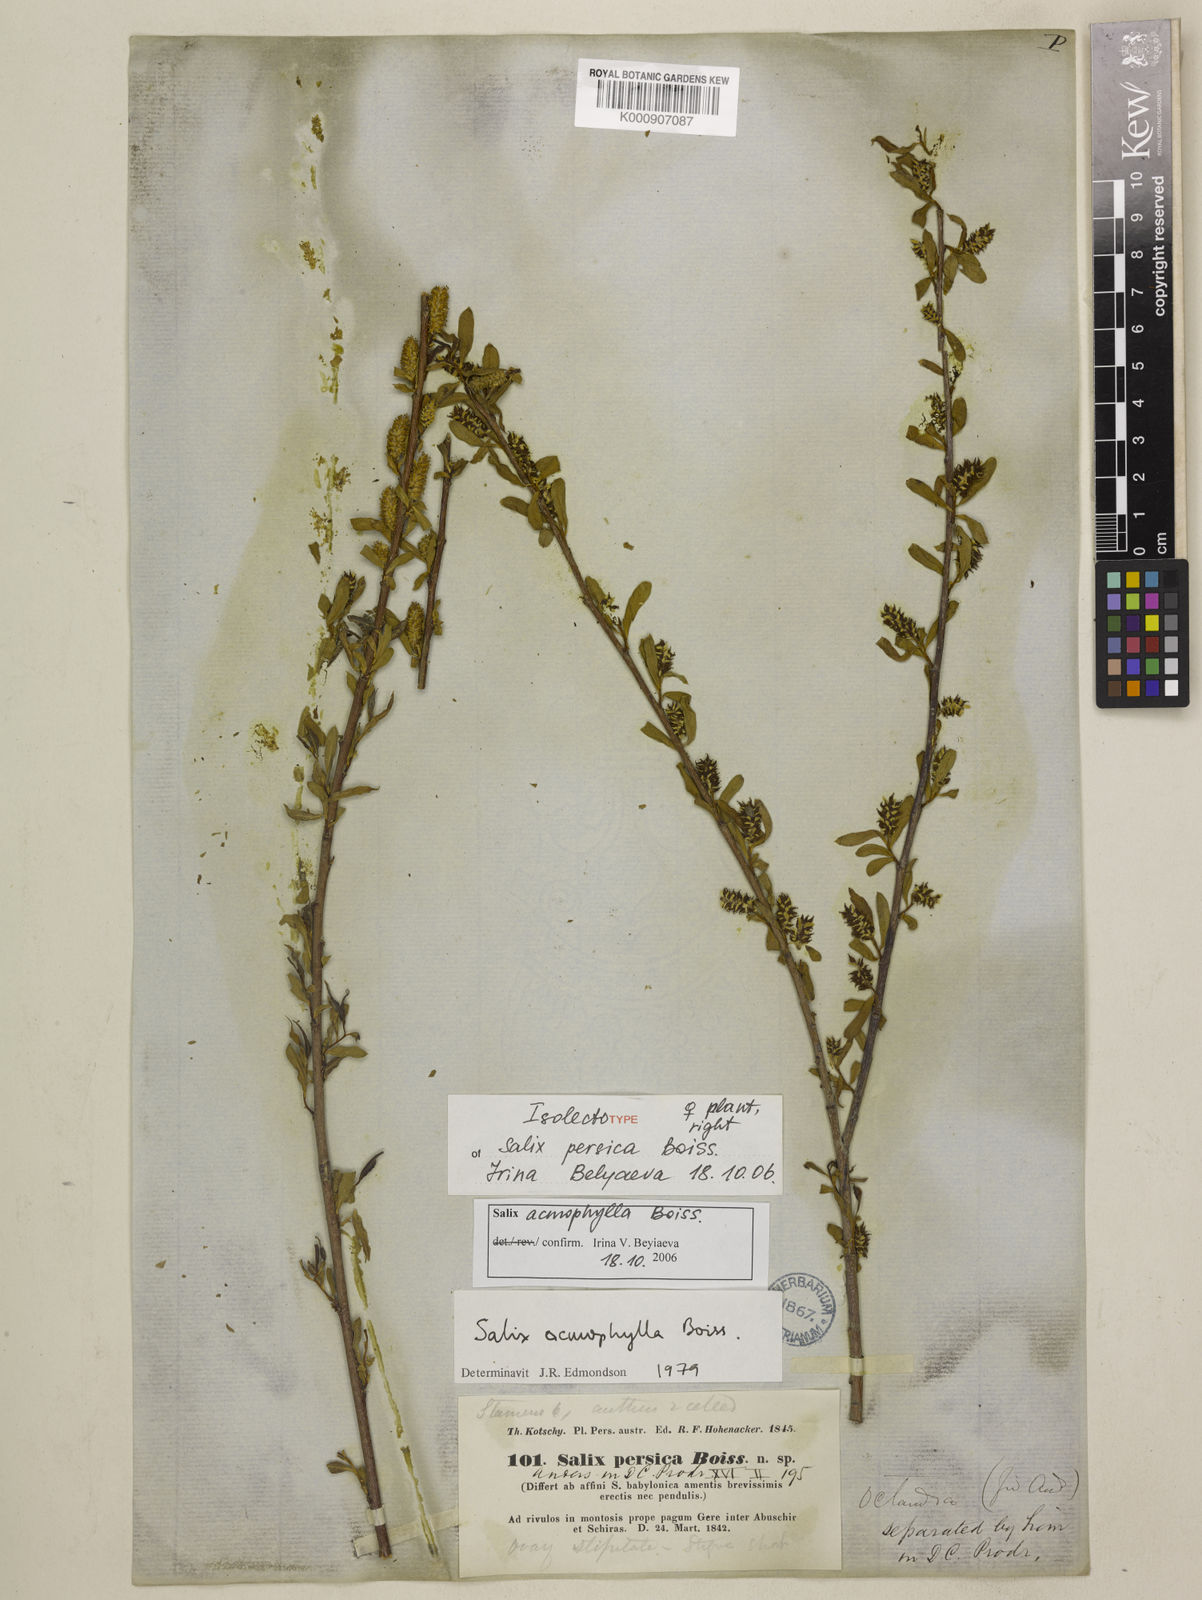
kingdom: Plantae
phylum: Tracheophyta
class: Magnoliopsida
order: Malpighiales
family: Salicaceae
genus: Salix
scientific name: Salix acmophylla
